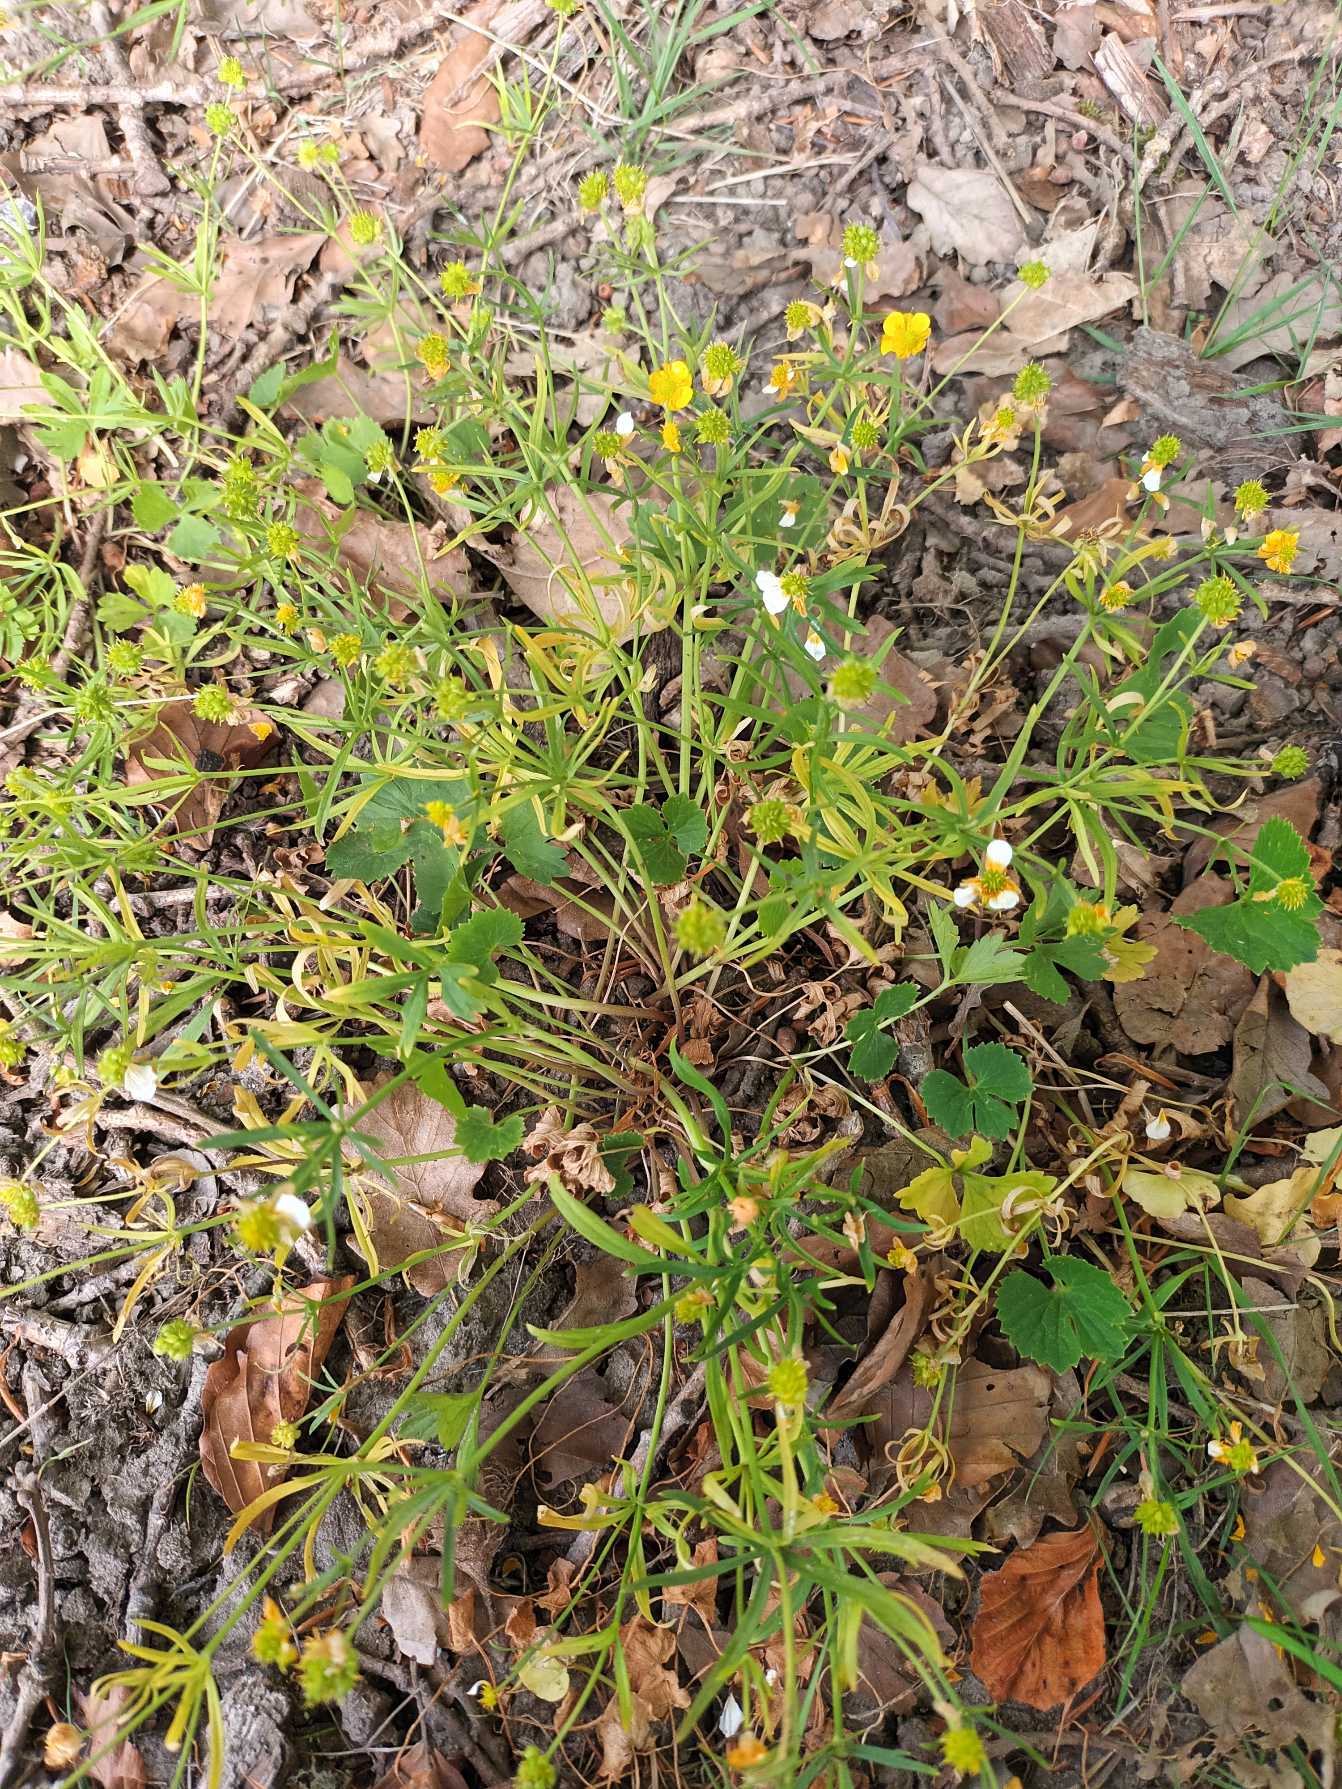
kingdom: Plantae
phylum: Tracheophyta
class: Magnoliopsida
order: Ranunculales
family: Ranunculaceae
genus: Ranunculus
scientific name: Ranunculus auricomus
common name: Nyrebladet ranunkel
